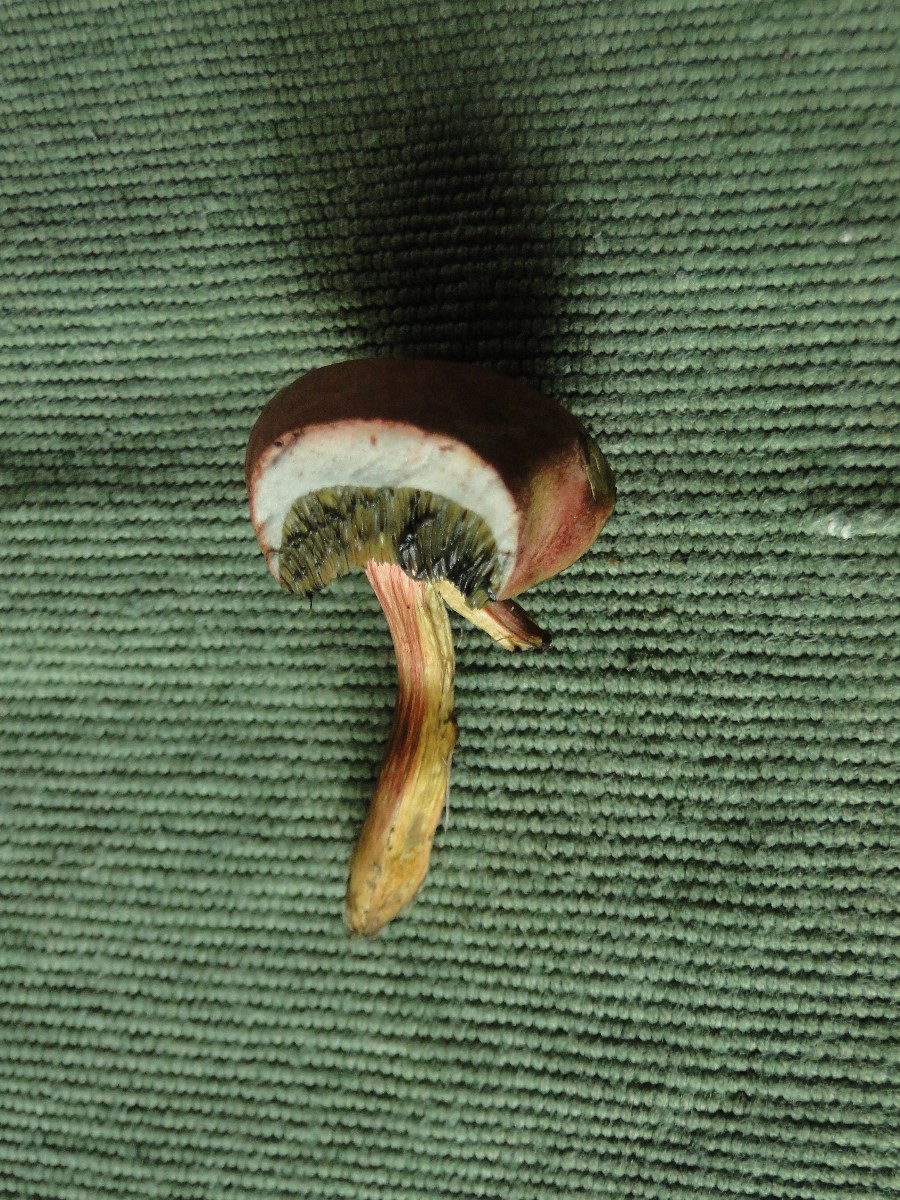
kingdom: Fungi
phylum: Basidiomycota
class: Agaricomycetes
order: Boletales
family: Boletaceae
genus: Hortiboletus
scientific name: Hortiboletus bubalinus
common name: aurora-rørhat
